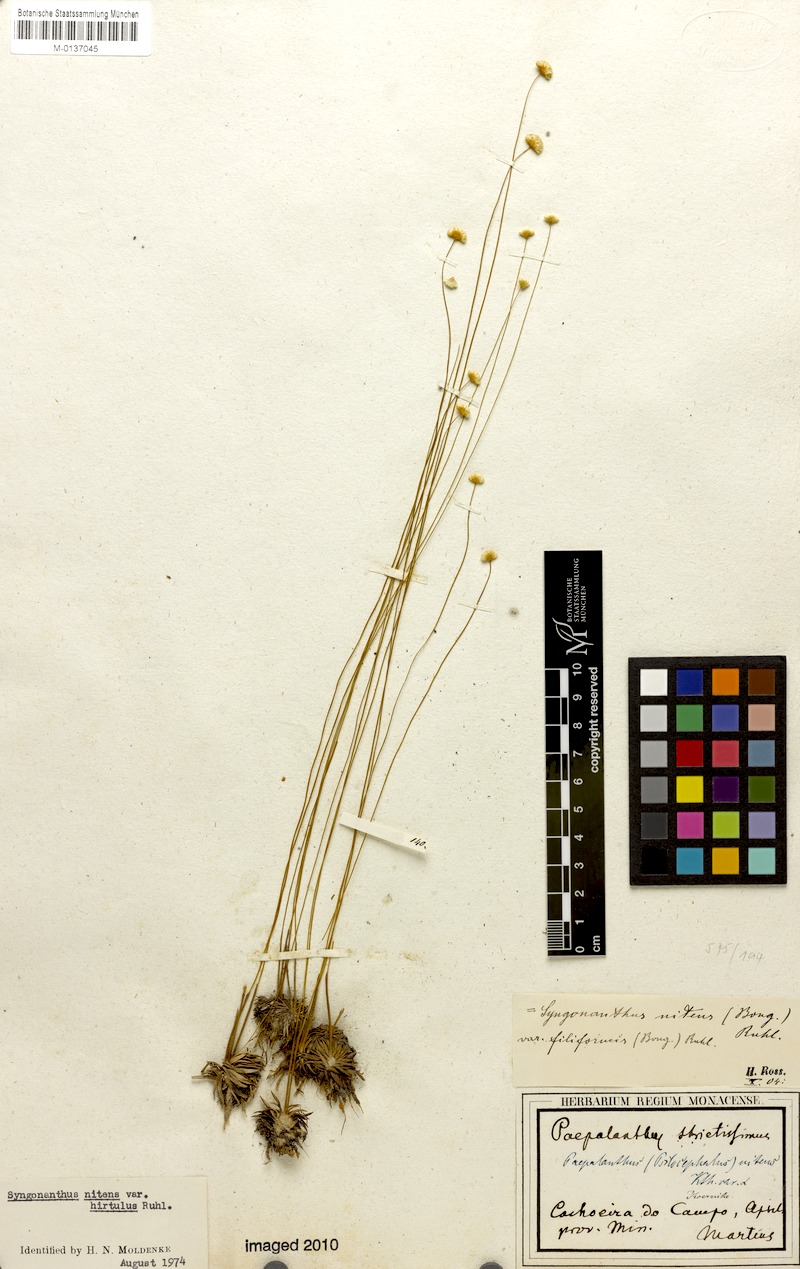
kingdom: Plantae
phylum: Tracheophyta
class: Liliopsida
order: Poales
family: Eriocaulaceae
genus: Syngonanthus
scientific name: Syngonanthus nitens
